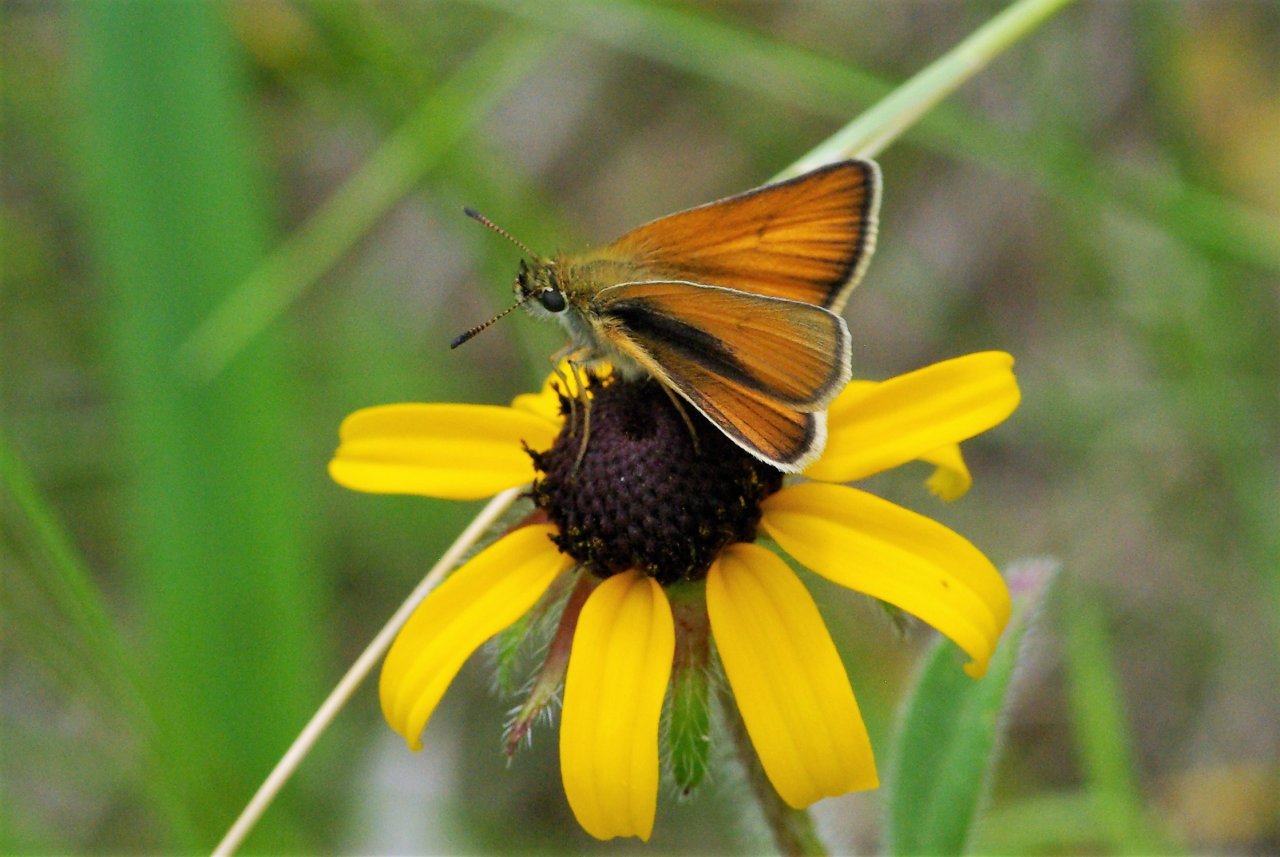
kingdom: Animalia
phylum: Arthropoda
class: Insecta
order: Lepidoptera
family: Hesperiidae
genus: Thymelicus
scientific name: Thymelicus lineola
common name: European Skipper
